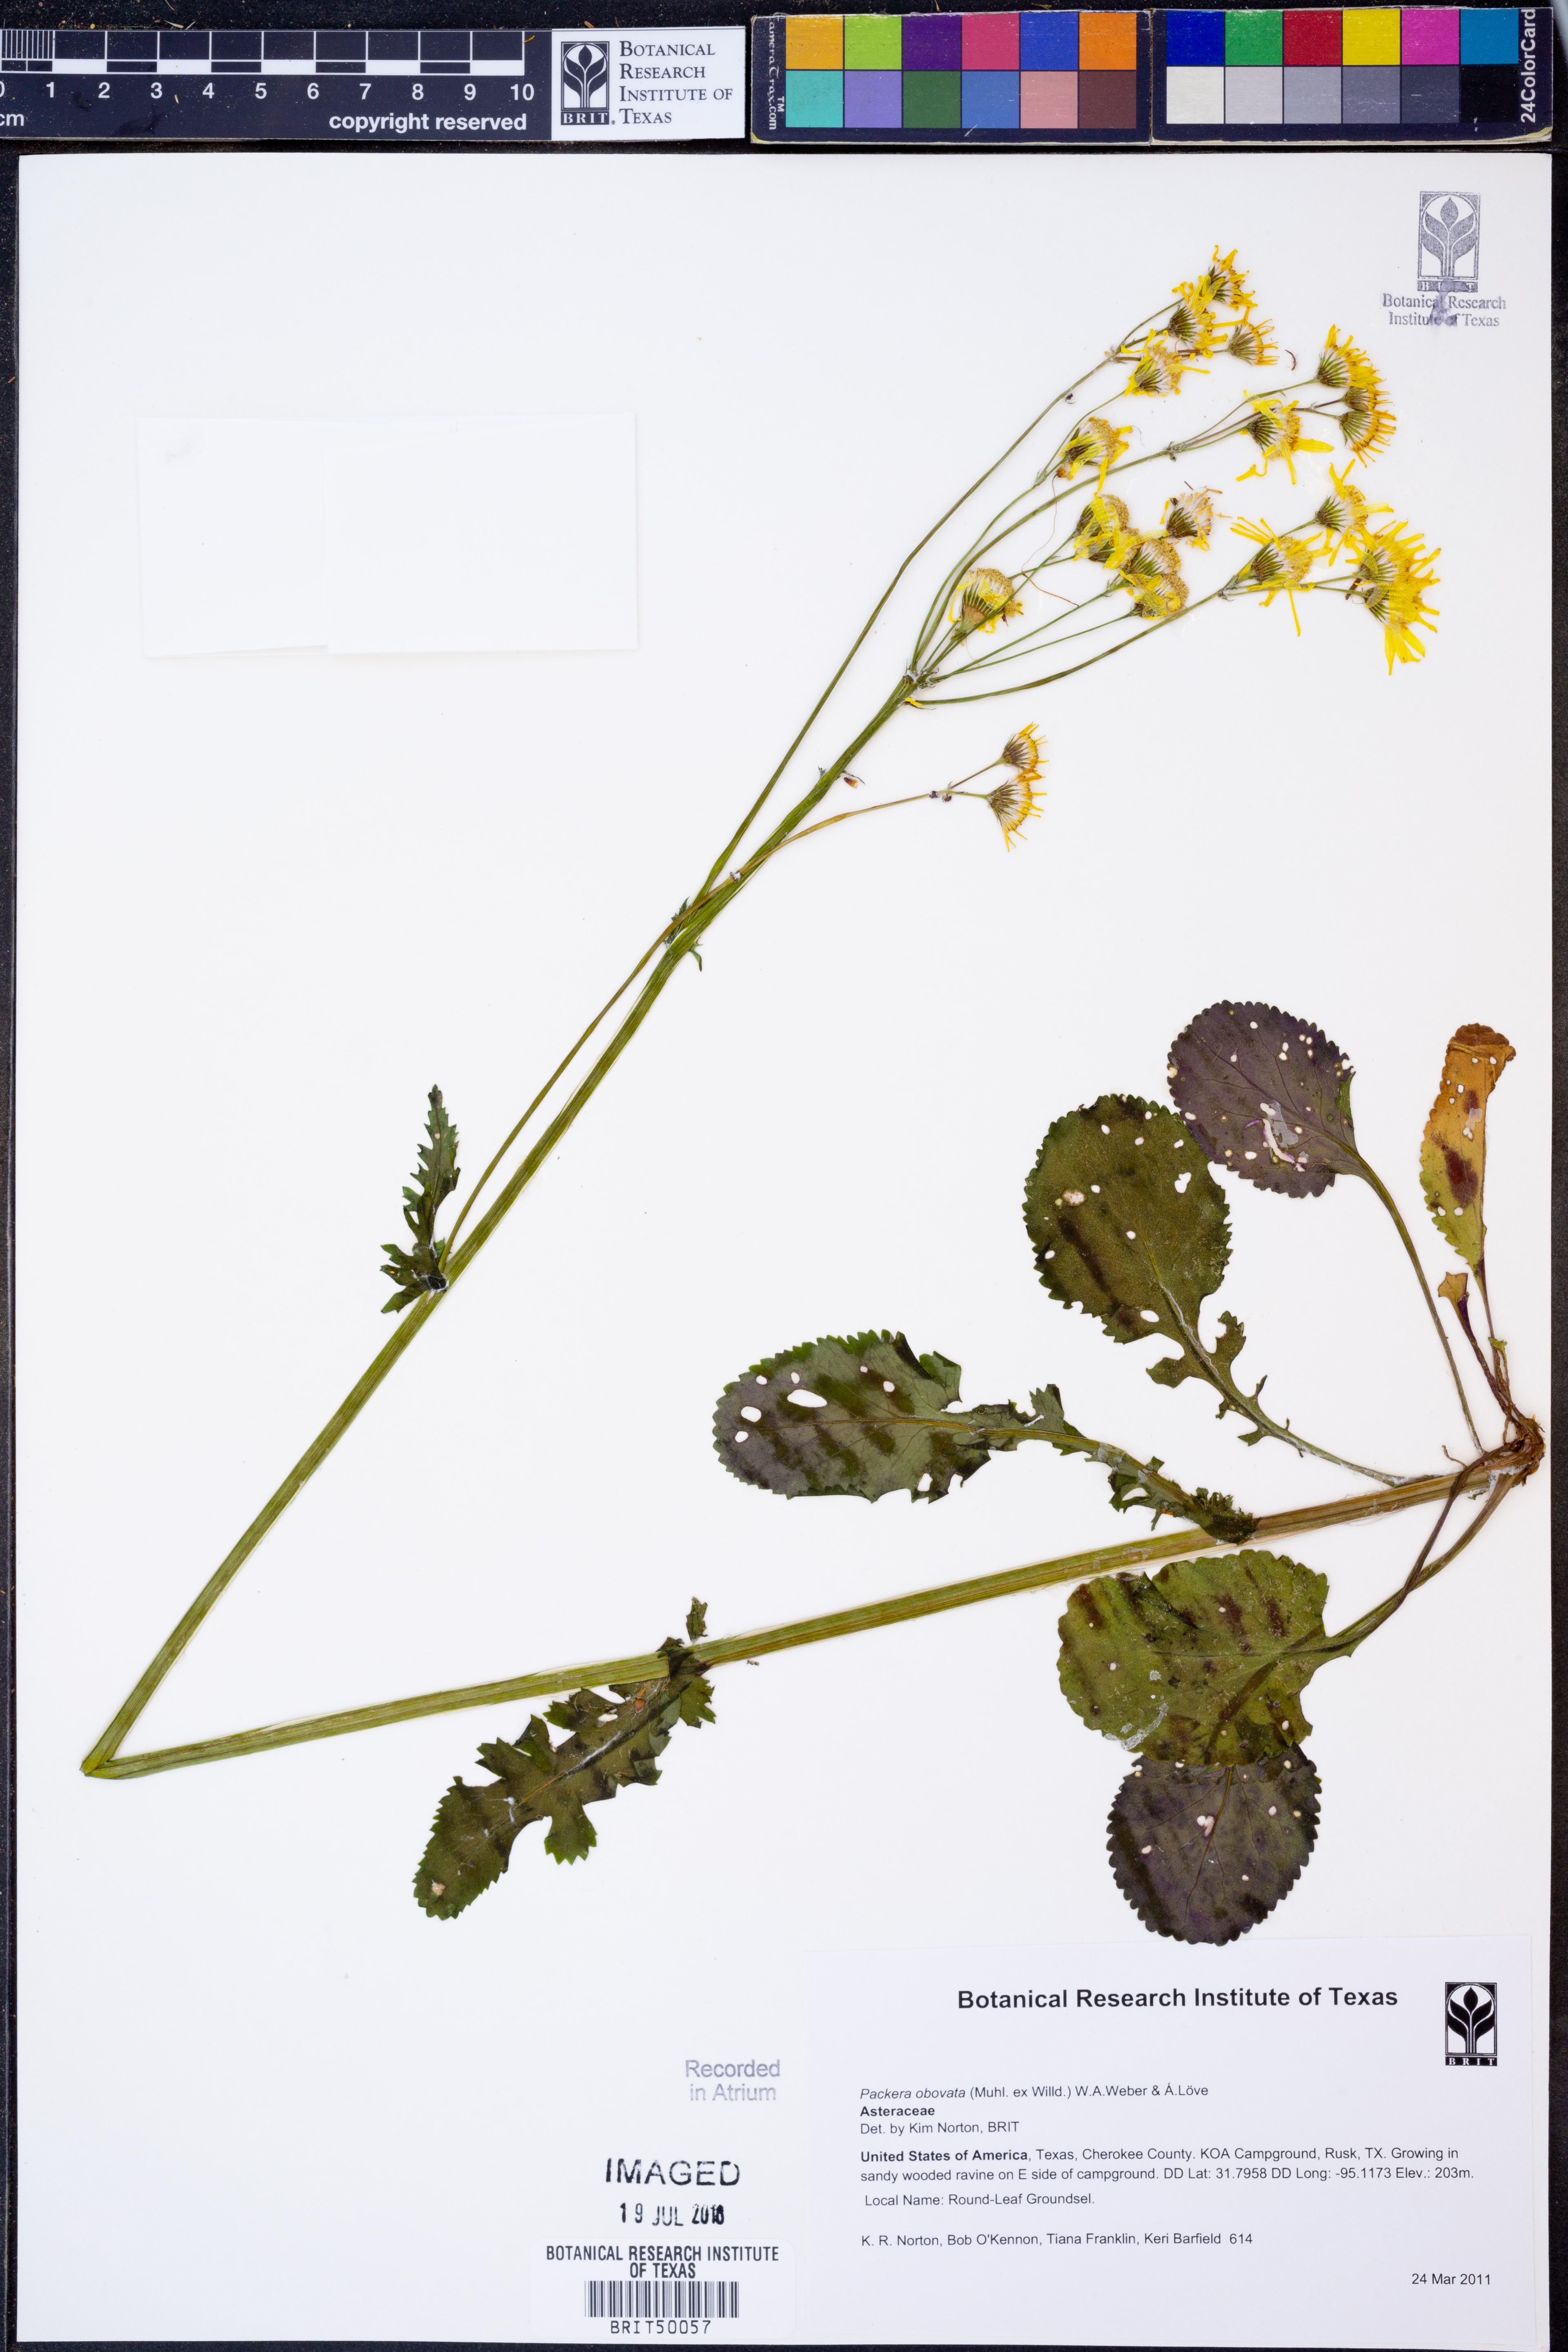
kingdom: Plantae
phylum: Tracheophyta
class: Magnoliopsida
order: Asterales
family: Asteraceae
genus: Packera
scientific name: Packera obovata
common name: Round-leaf ragwort
